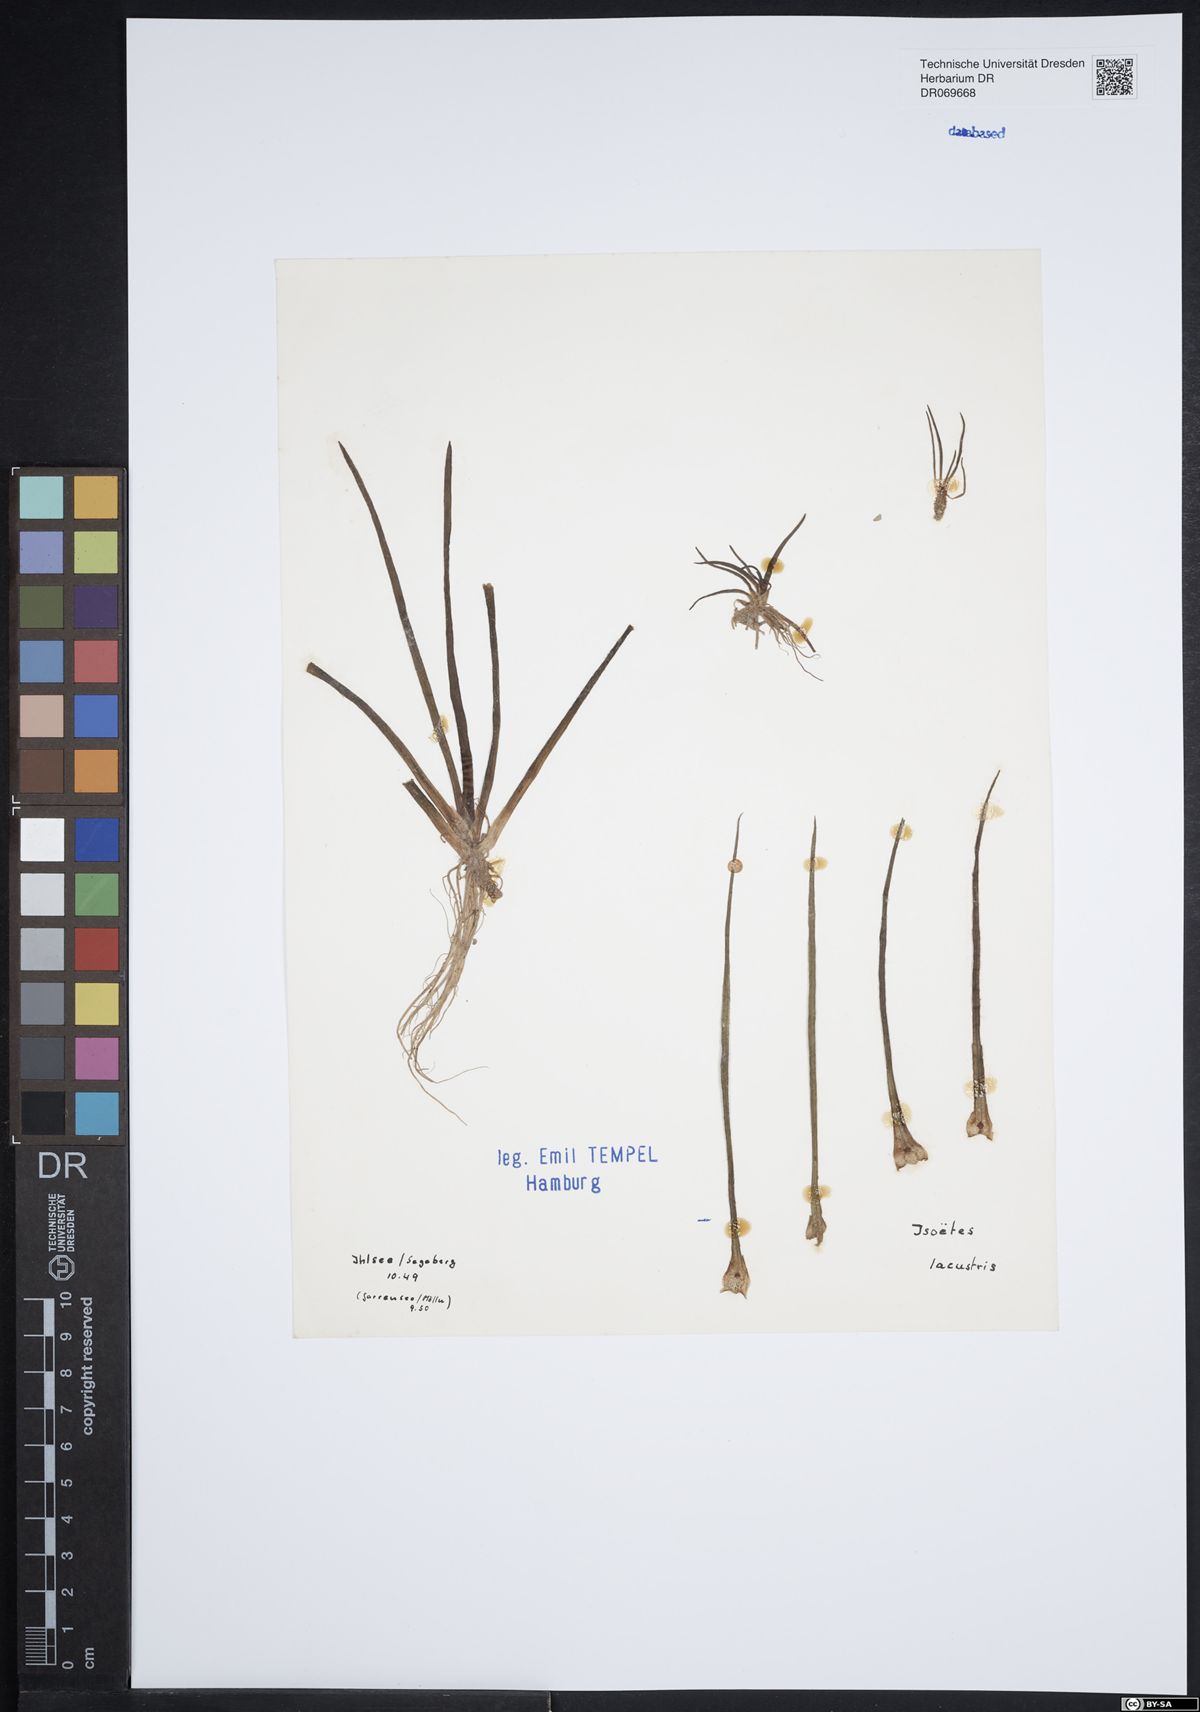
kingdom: Plantae
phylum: Tracheophyta
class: Lycopodiopsida
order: Isoetales
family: Isoetaceae
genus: Isoetes
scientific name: Isoetes lacustris
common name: Common quillwort
